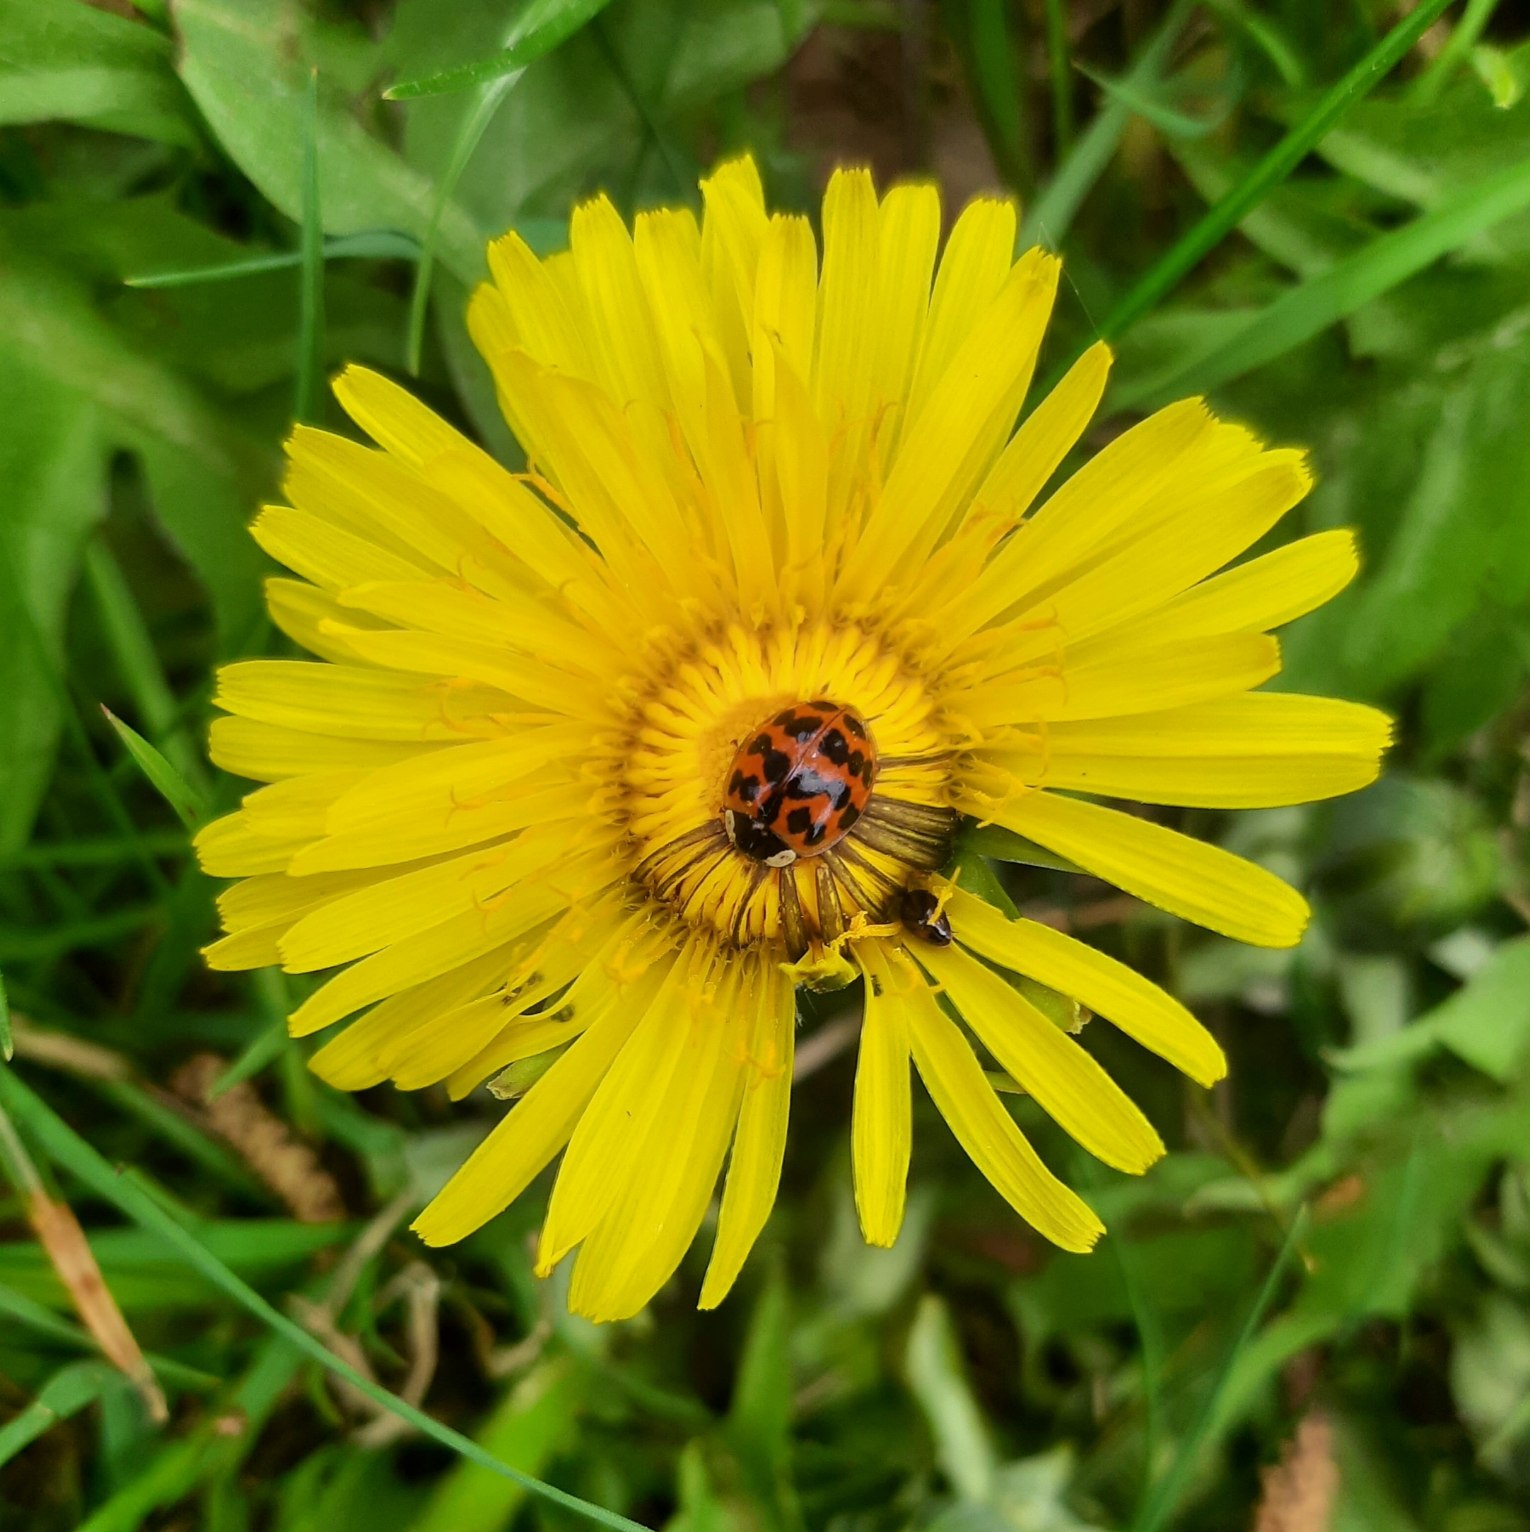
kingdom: Animalia
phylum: Arthropoda
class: Insecta
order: Coleoptera
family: Coccinellidae
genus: Harmonia
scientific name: Harmonia axyridis
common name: Harlekinmariehøne
